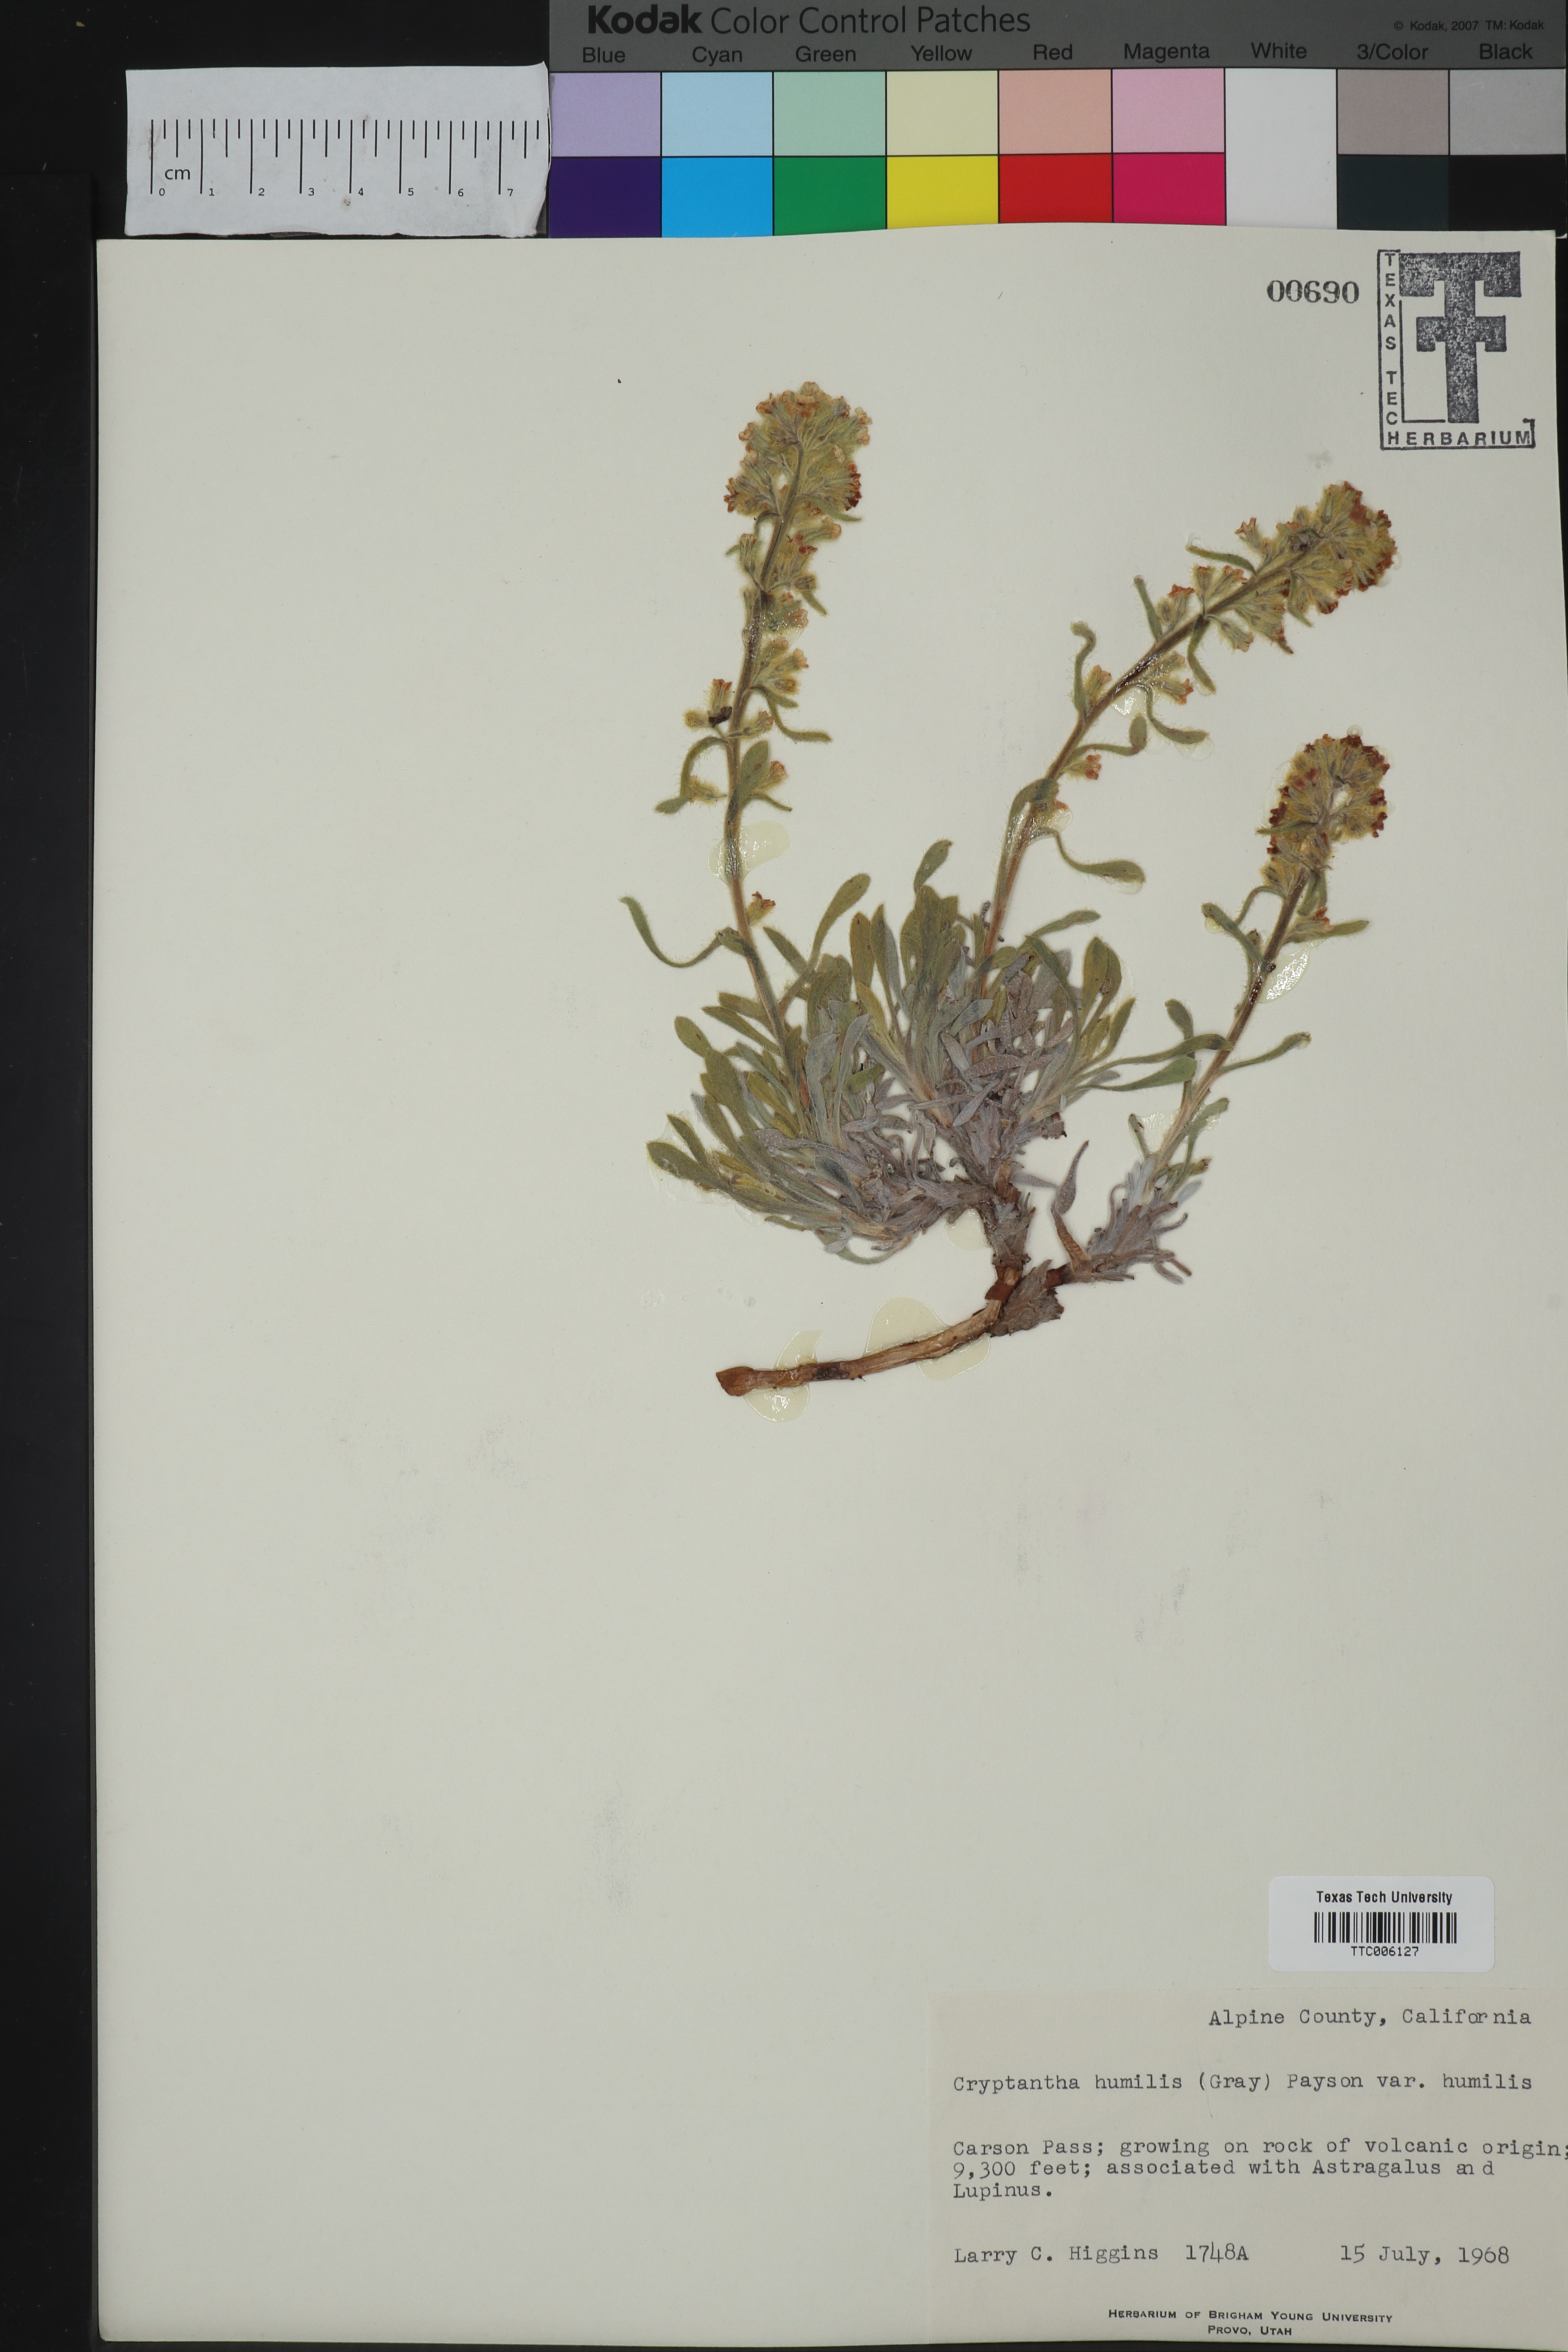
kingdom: Plantae
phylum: Tracheophyta
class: Magnoliopsida
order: Boraginales
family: Boraginaceae
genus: Oreocarya
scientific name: Oreocarya humilis
